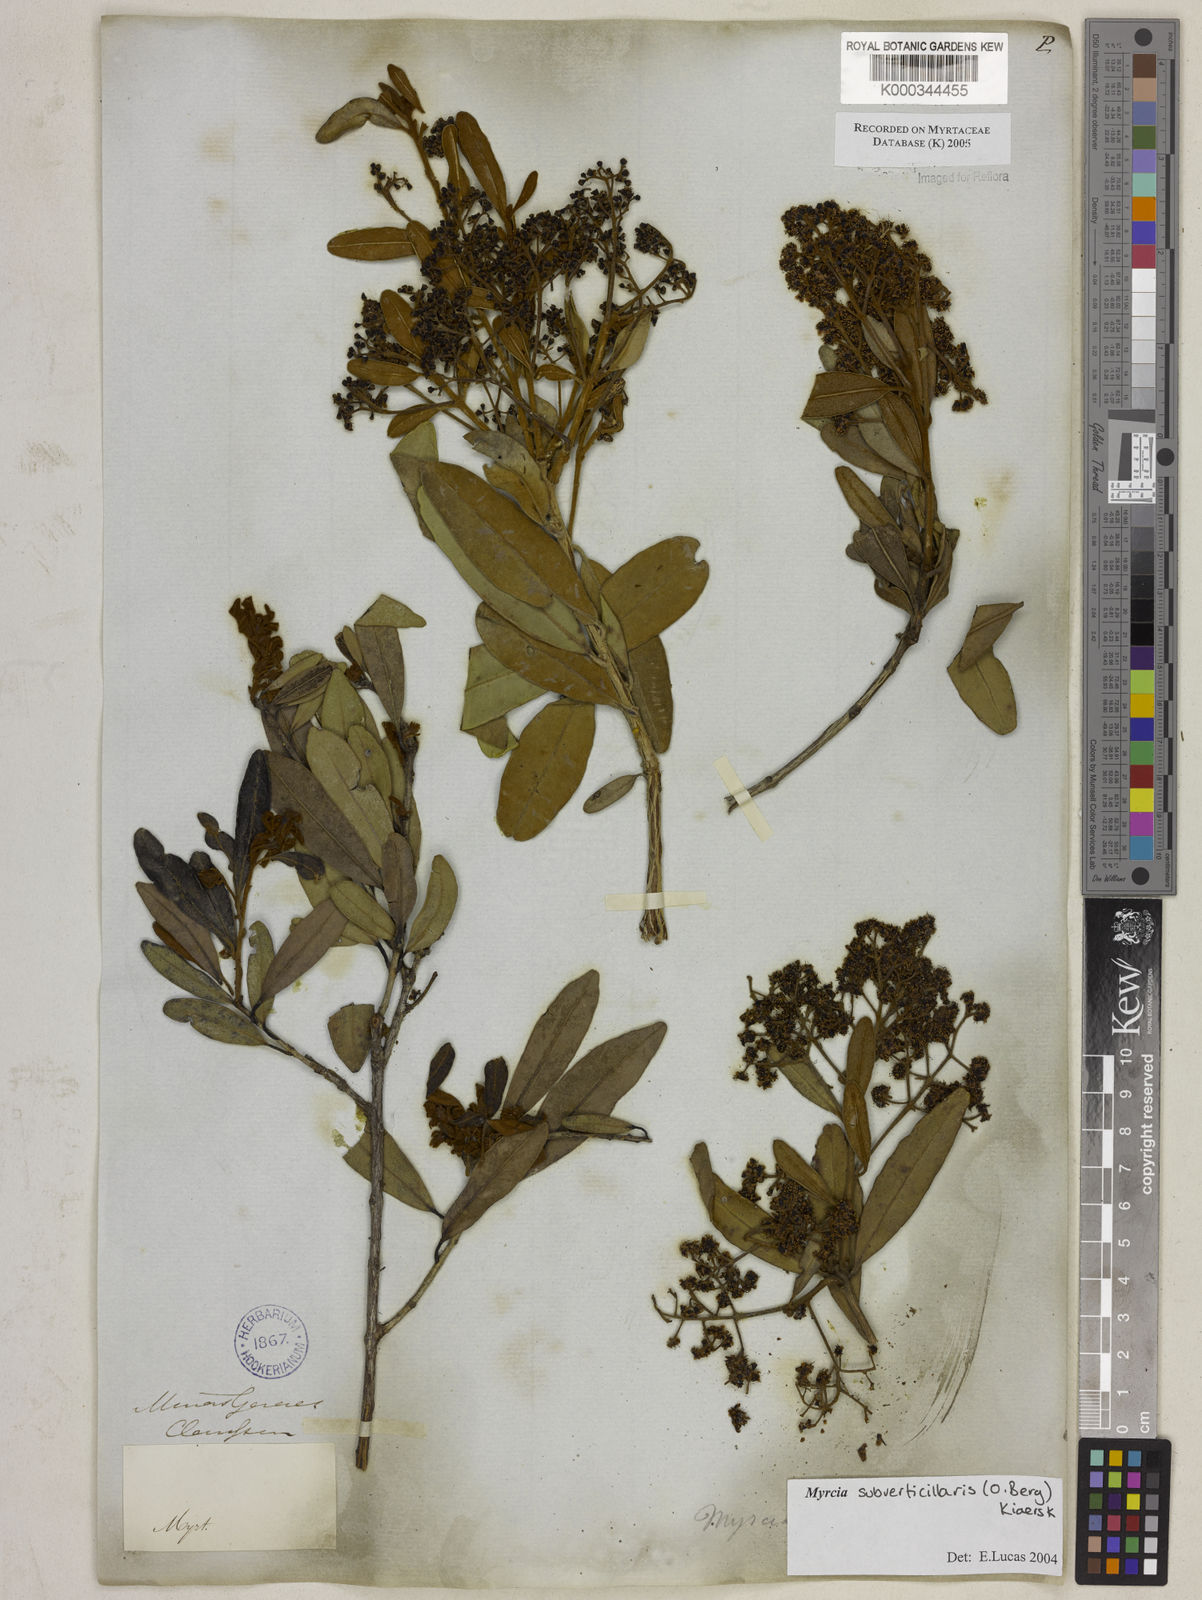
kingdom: Plantae
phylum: Tracheophyta
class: Magnoliopsida
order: Myrtales
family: Myrtaceae
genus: Myrcia
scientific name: Myrcia
